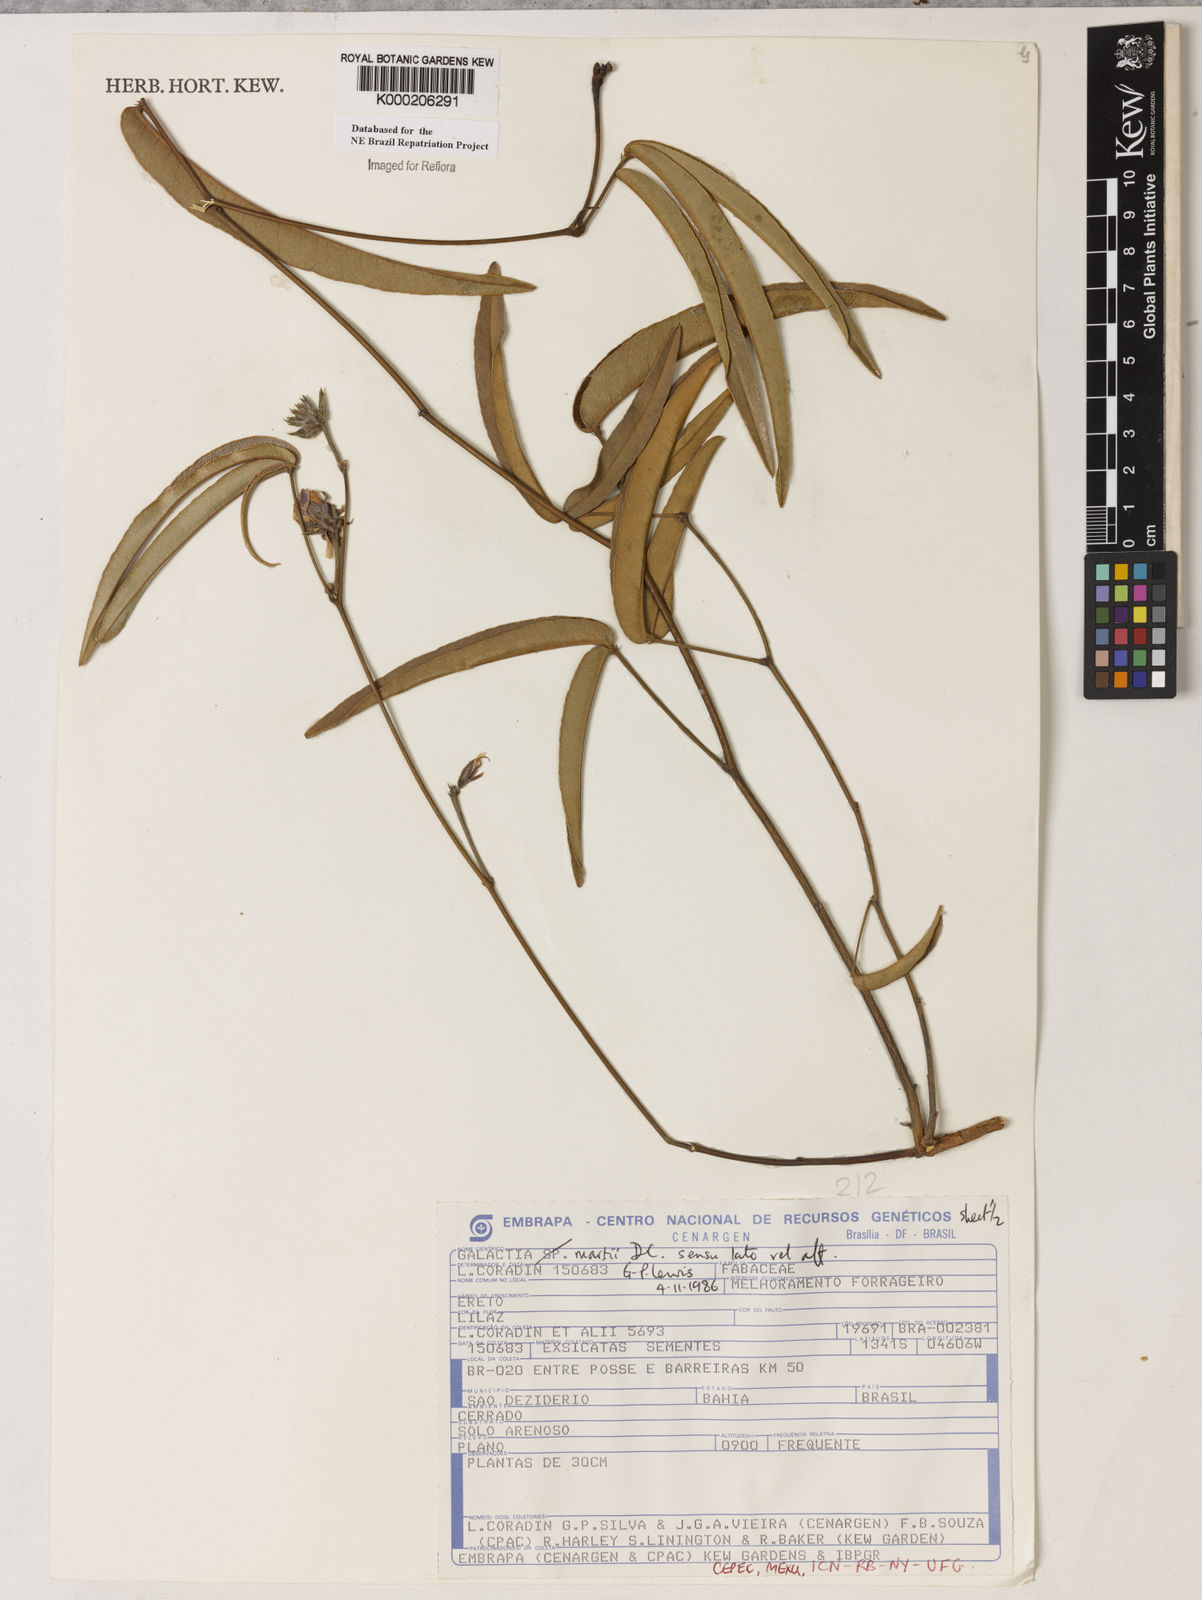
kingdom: Plantae
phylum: Tracheophyta
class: Magnoliopsida
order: Fabales
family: Fabaceae
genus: Betencourtia
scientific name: Betencourtia martii
